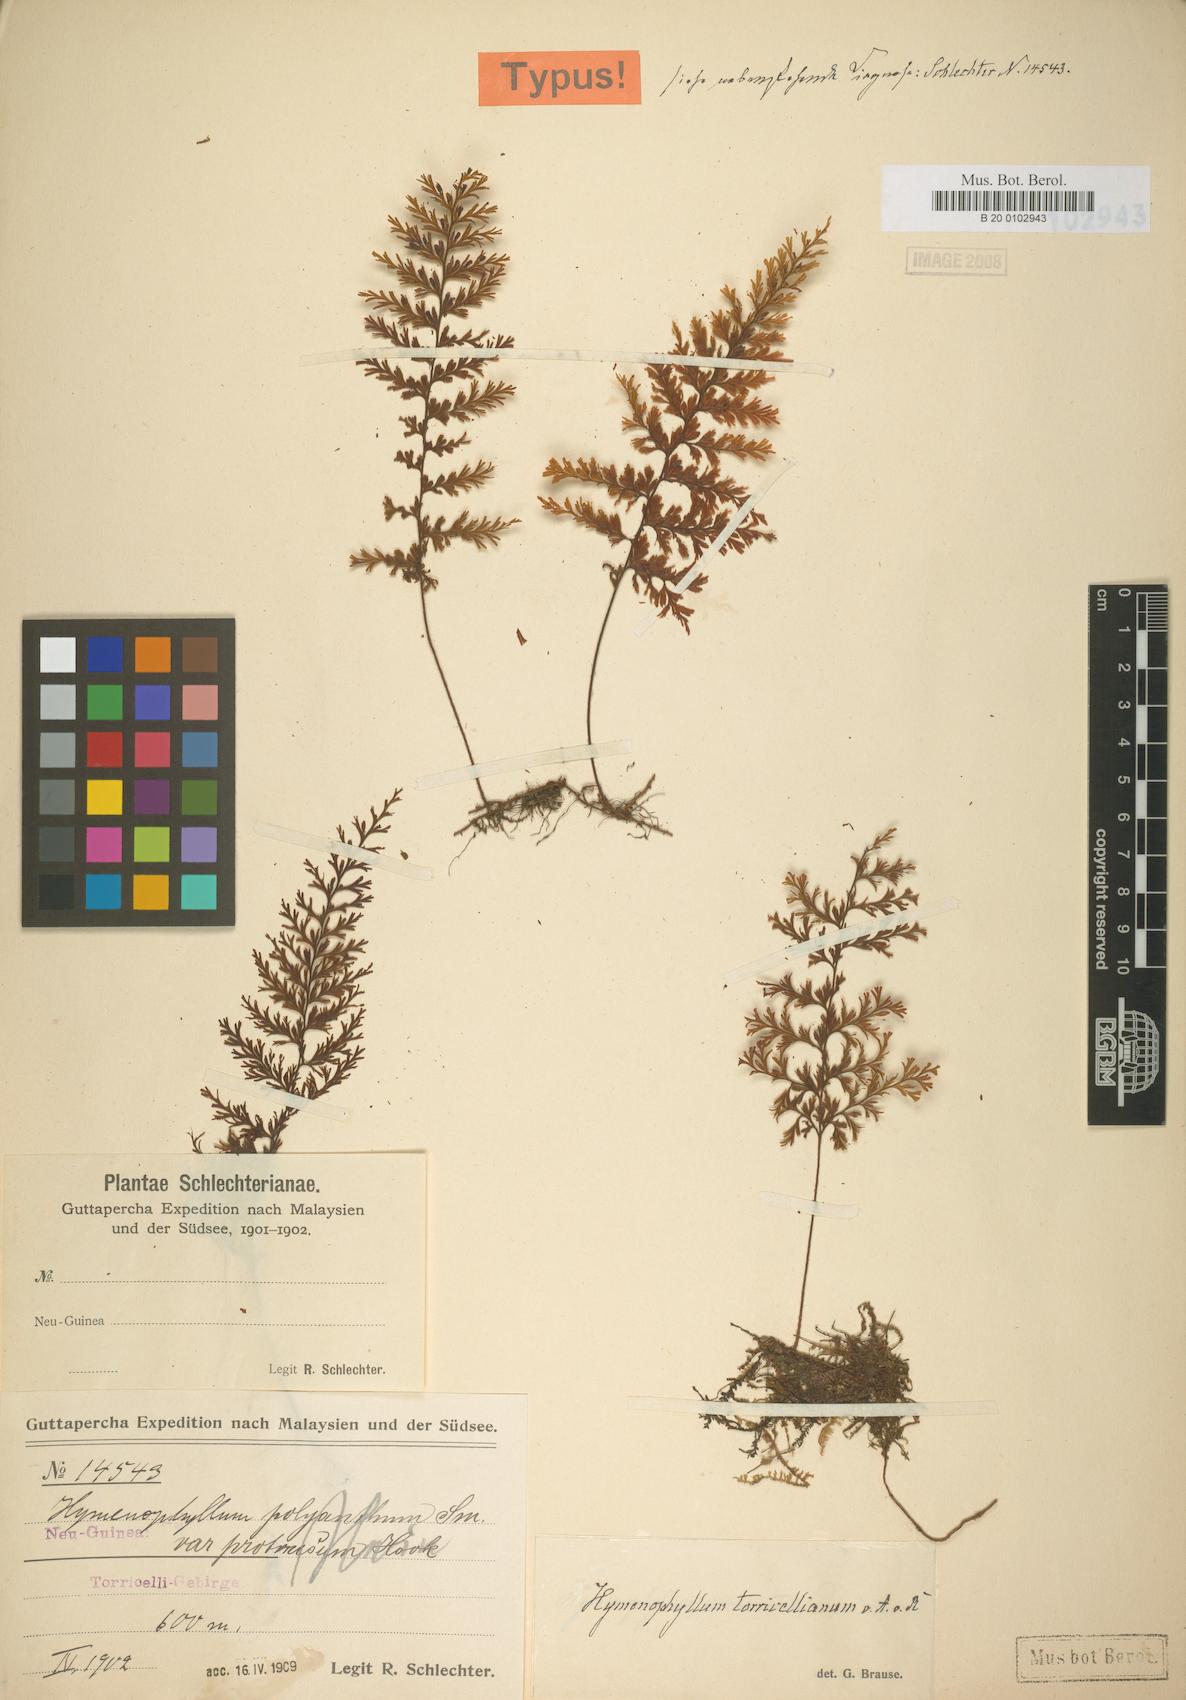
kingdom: Plantae
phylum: Tracheophyta
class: Polypodiopsida
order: Hymenophyllales
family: Hymenophyllaceae
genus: Hymenophyllum
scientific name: Hymenophyllum serrulatum
